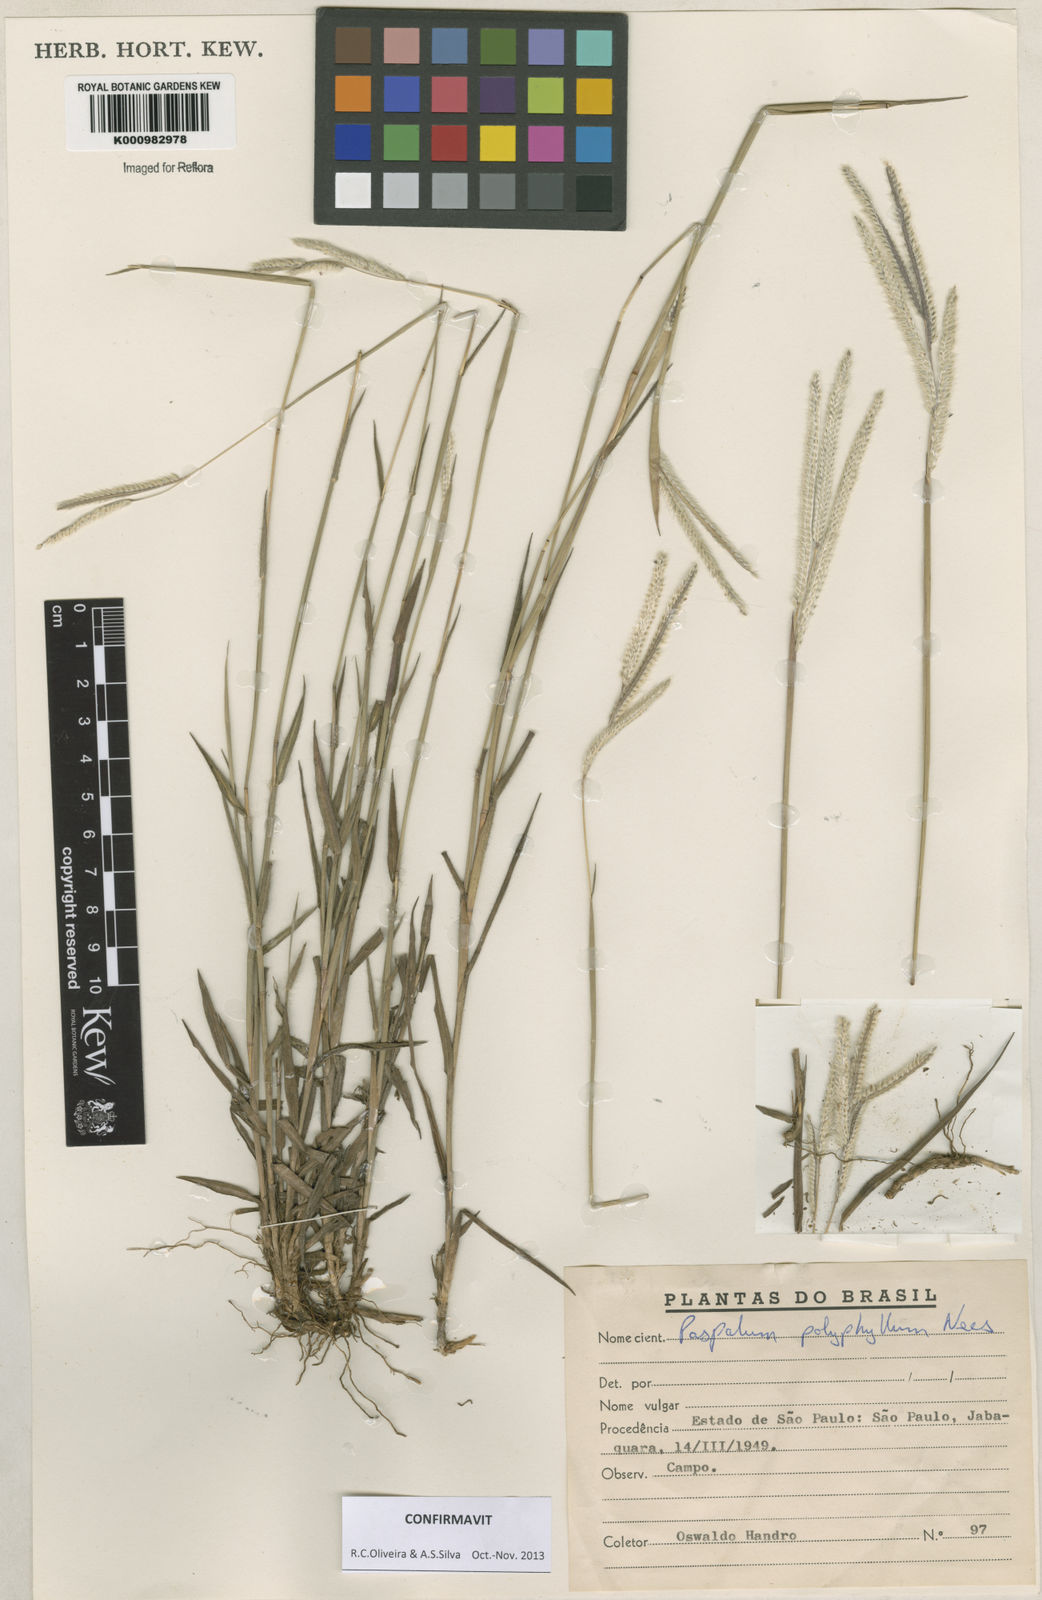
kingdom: Plantae
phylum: Tracheophyta
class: Liliopsida
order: Poales
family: Poaceae
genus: Paspalum
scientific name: Paspalum
